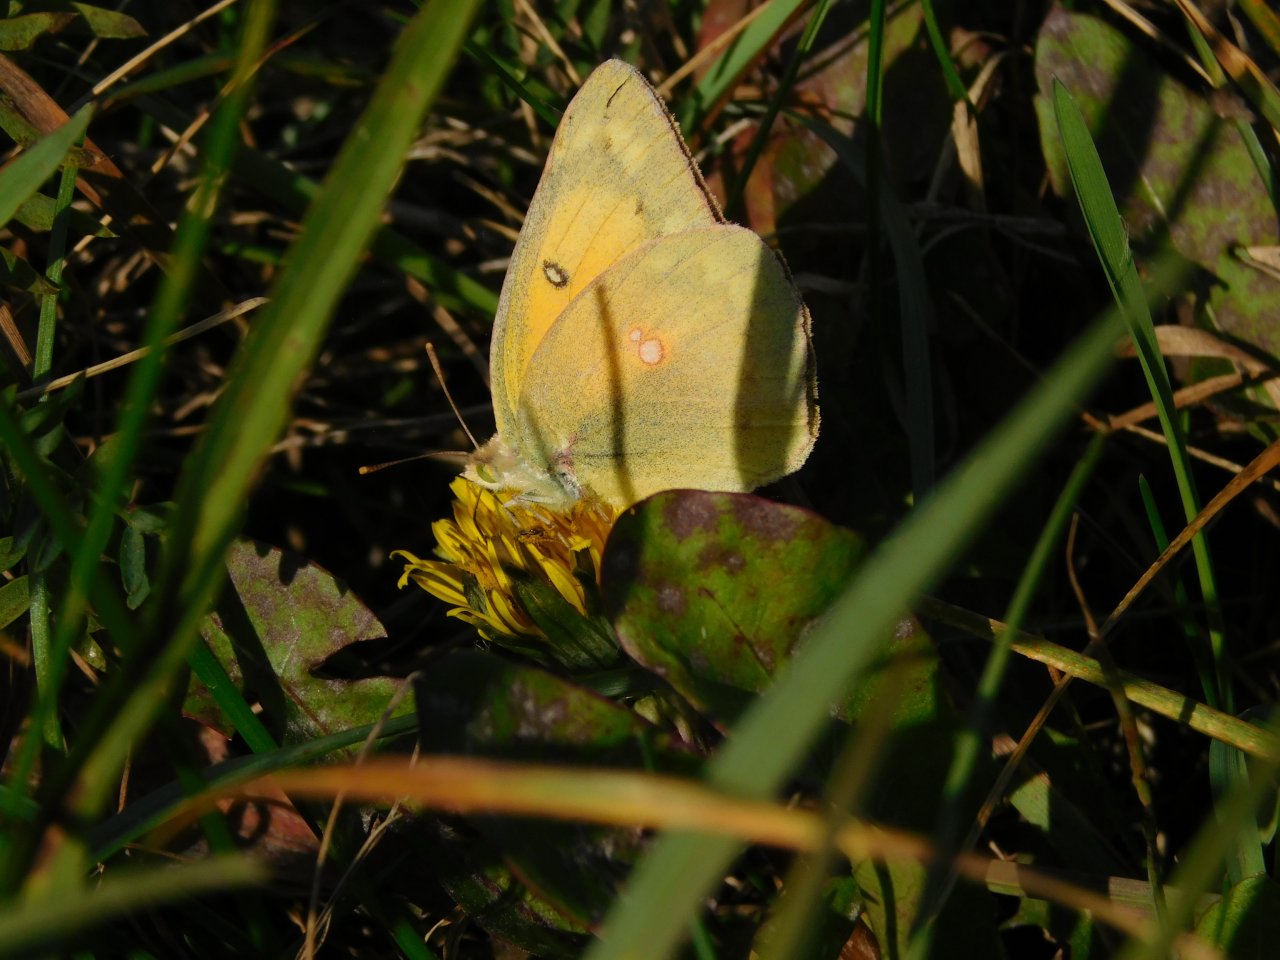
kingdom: Animalia
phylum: Arthropoda
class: Insecta
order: Lepidoptera
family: Pieridae
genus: Colias
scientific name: Colias eurytheme
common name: Orange Sulphur
